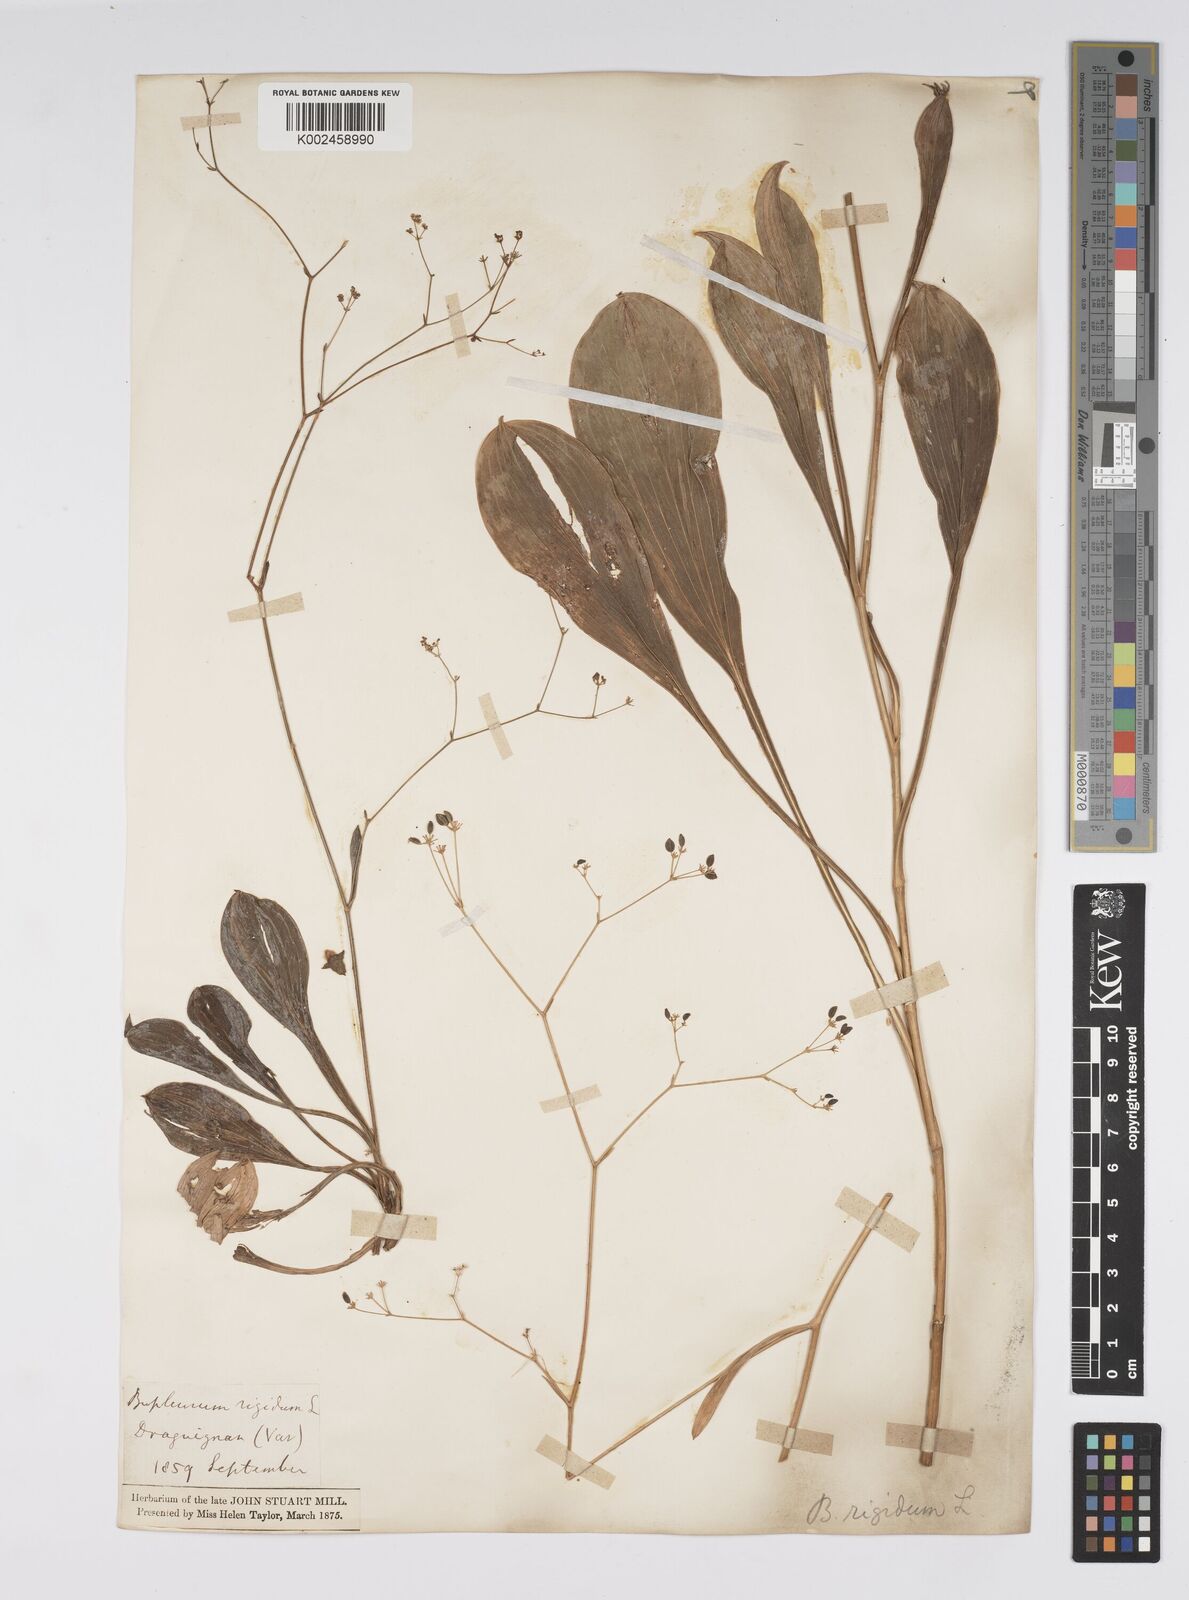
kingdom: Plantae
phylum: Tracheophyta
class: Magnoliopsida
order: Apiales
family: Apiaceae
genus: Bupleurum
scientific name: Bupleurum rigidum
